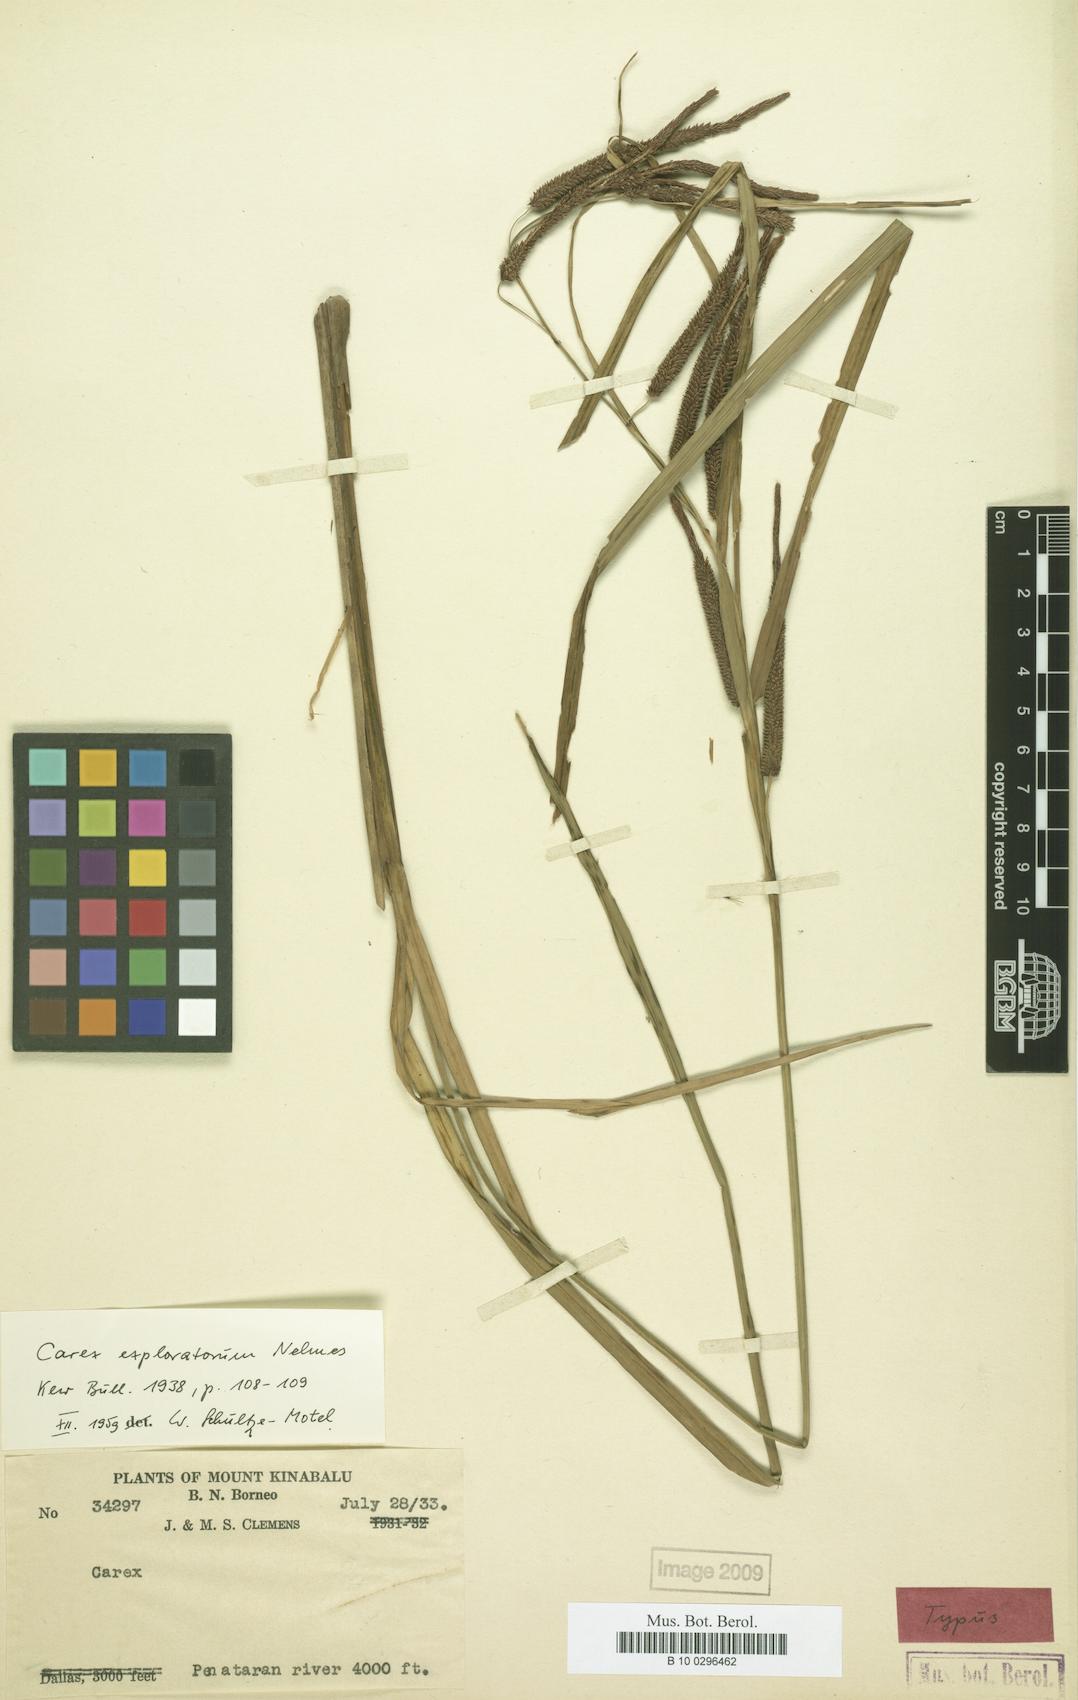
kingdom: Plantae
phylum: Tracheophyta
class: Liliopsida
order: Poales
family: Cyperaceae
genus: Carex
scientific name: Carex graeffeana
